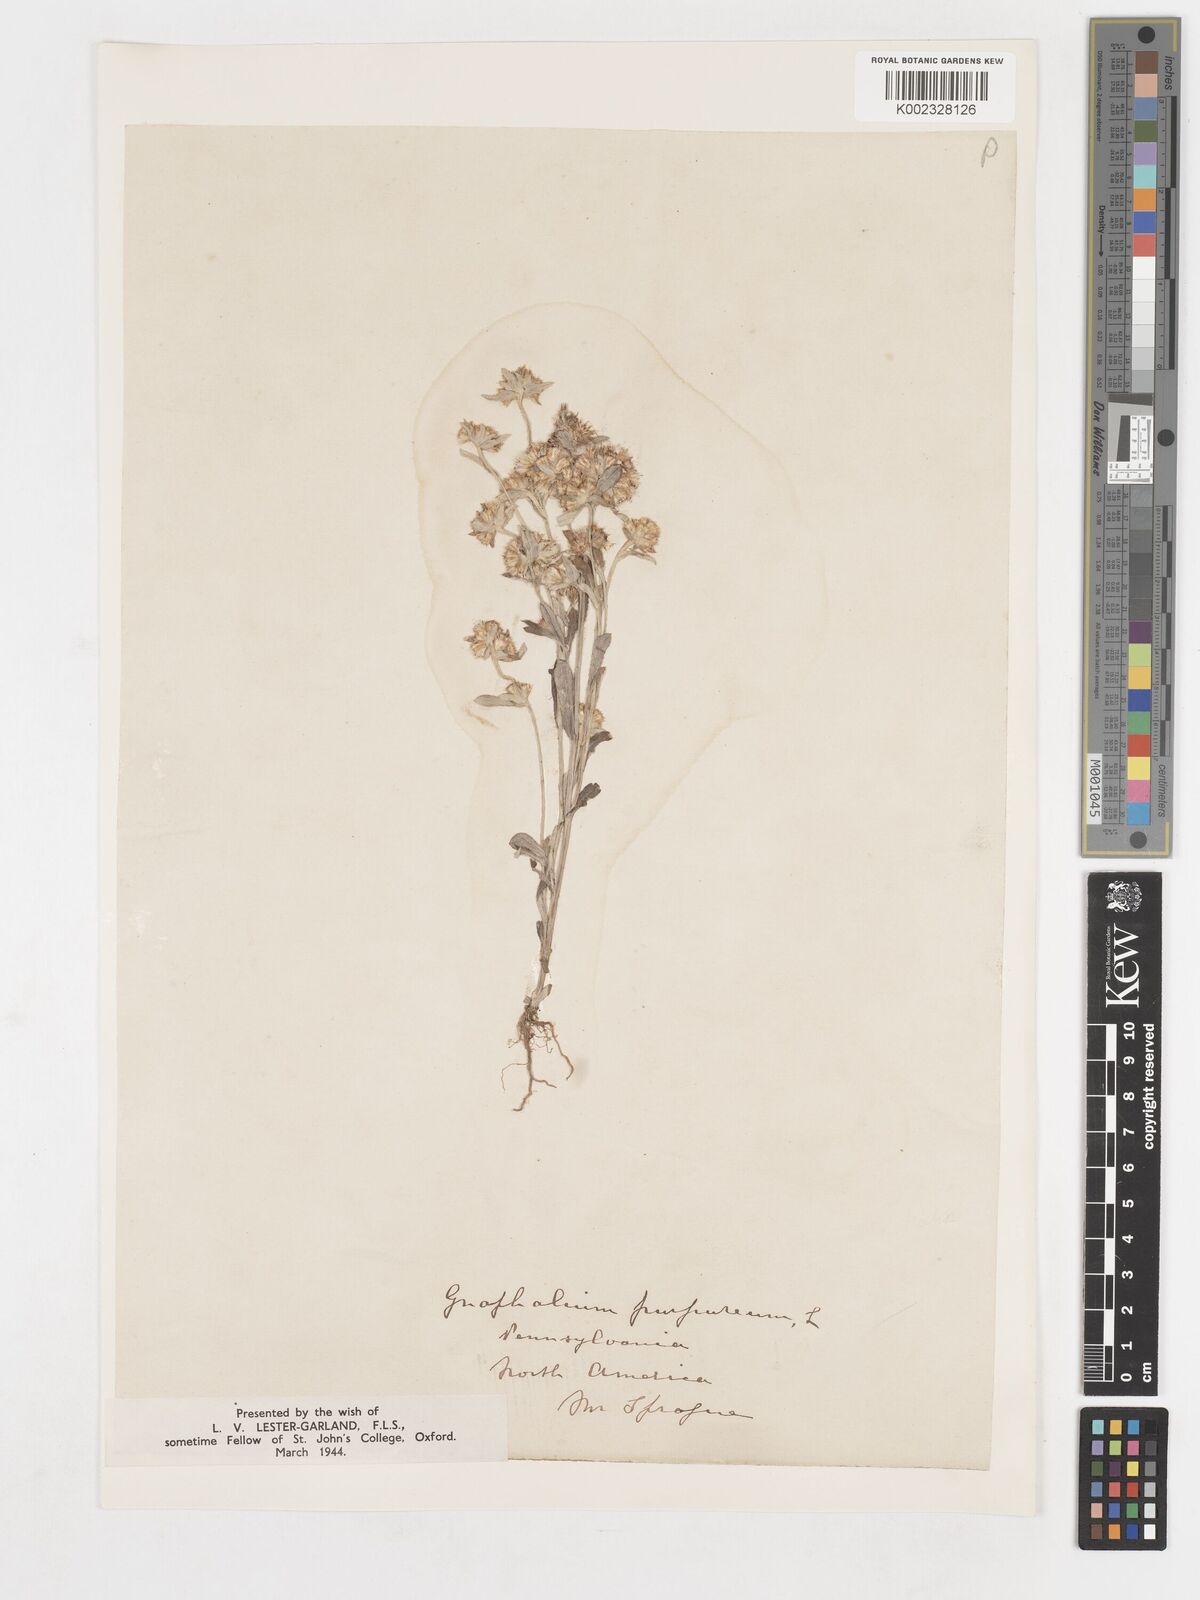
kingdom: Plantae
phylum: Tracheophyta
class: Magnoliopsida
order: Asterales
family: Asteraceae
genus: Gamochaeta
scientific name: Gamochaeta purpurea
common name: Purple cudweed
